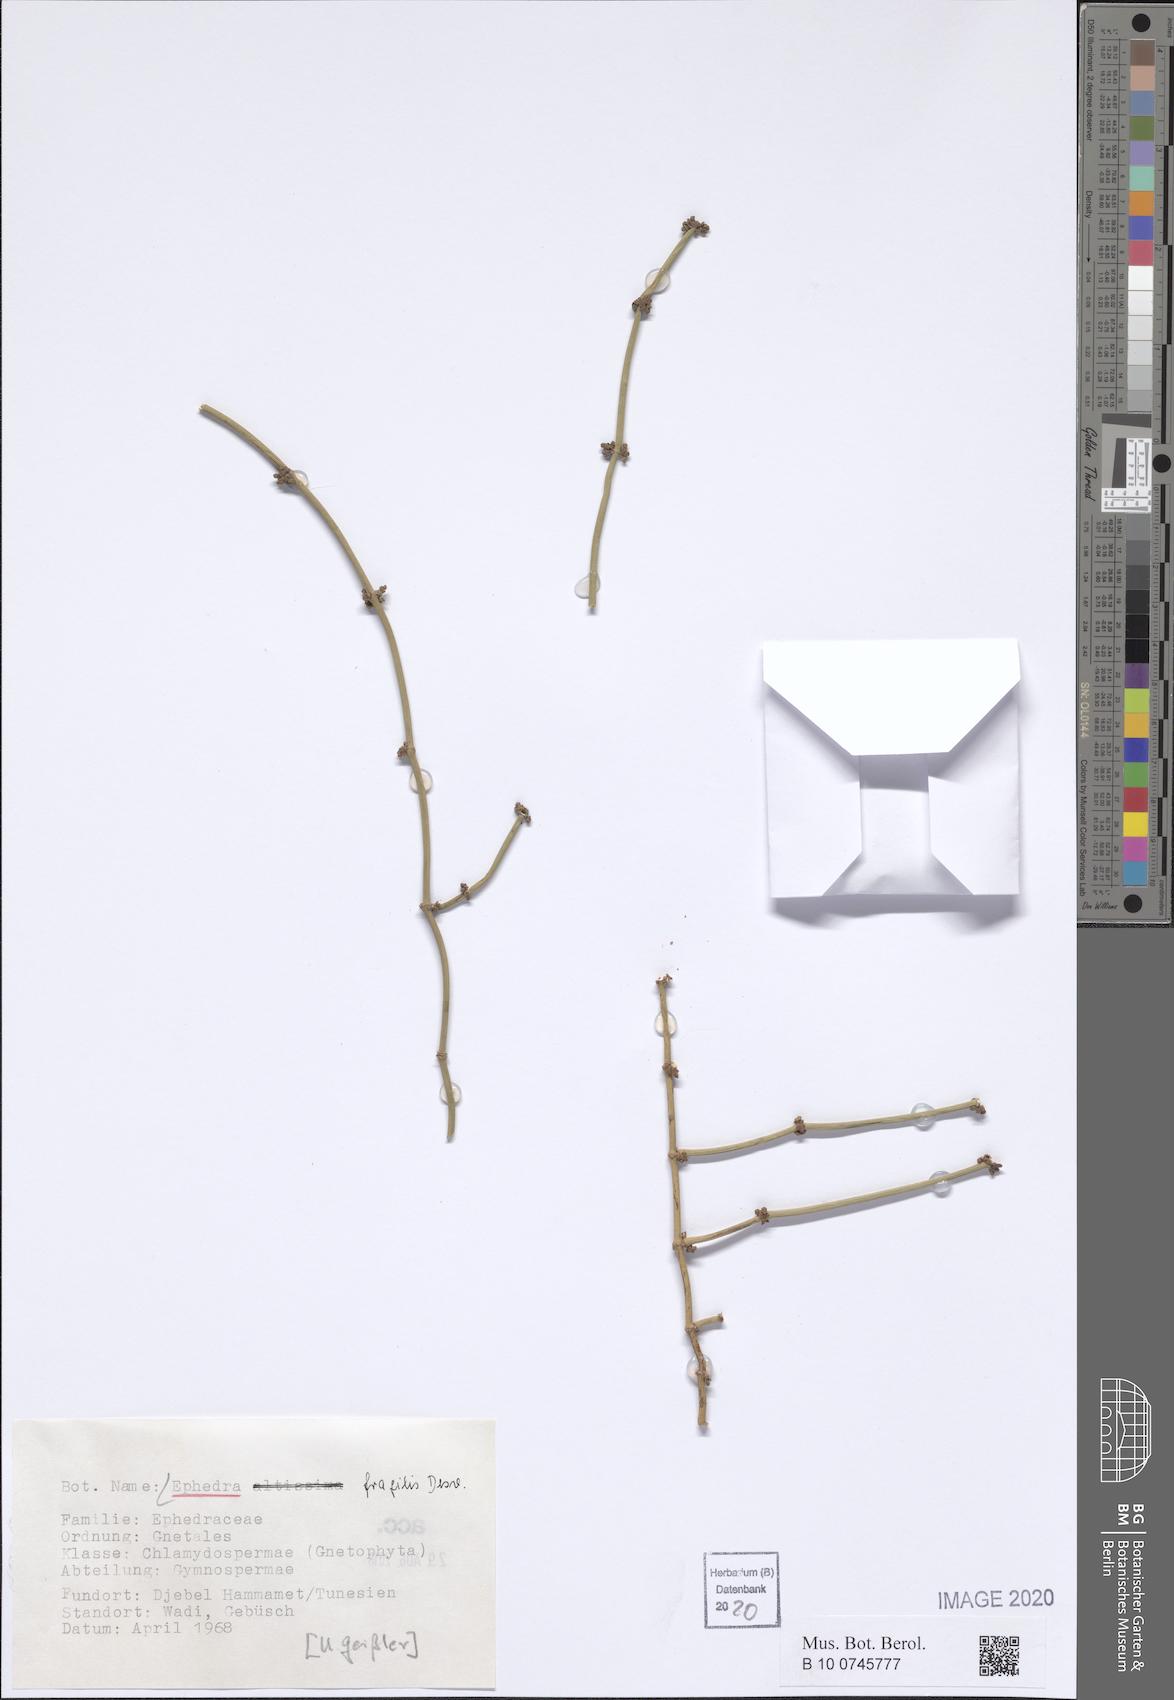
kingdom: Plantae
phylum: Tracheophyta
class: Gnetopsida
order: Ephedrales
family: Ephedraceae
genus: Ephedra
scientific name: Ephedra fragilis
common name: Joint pine
